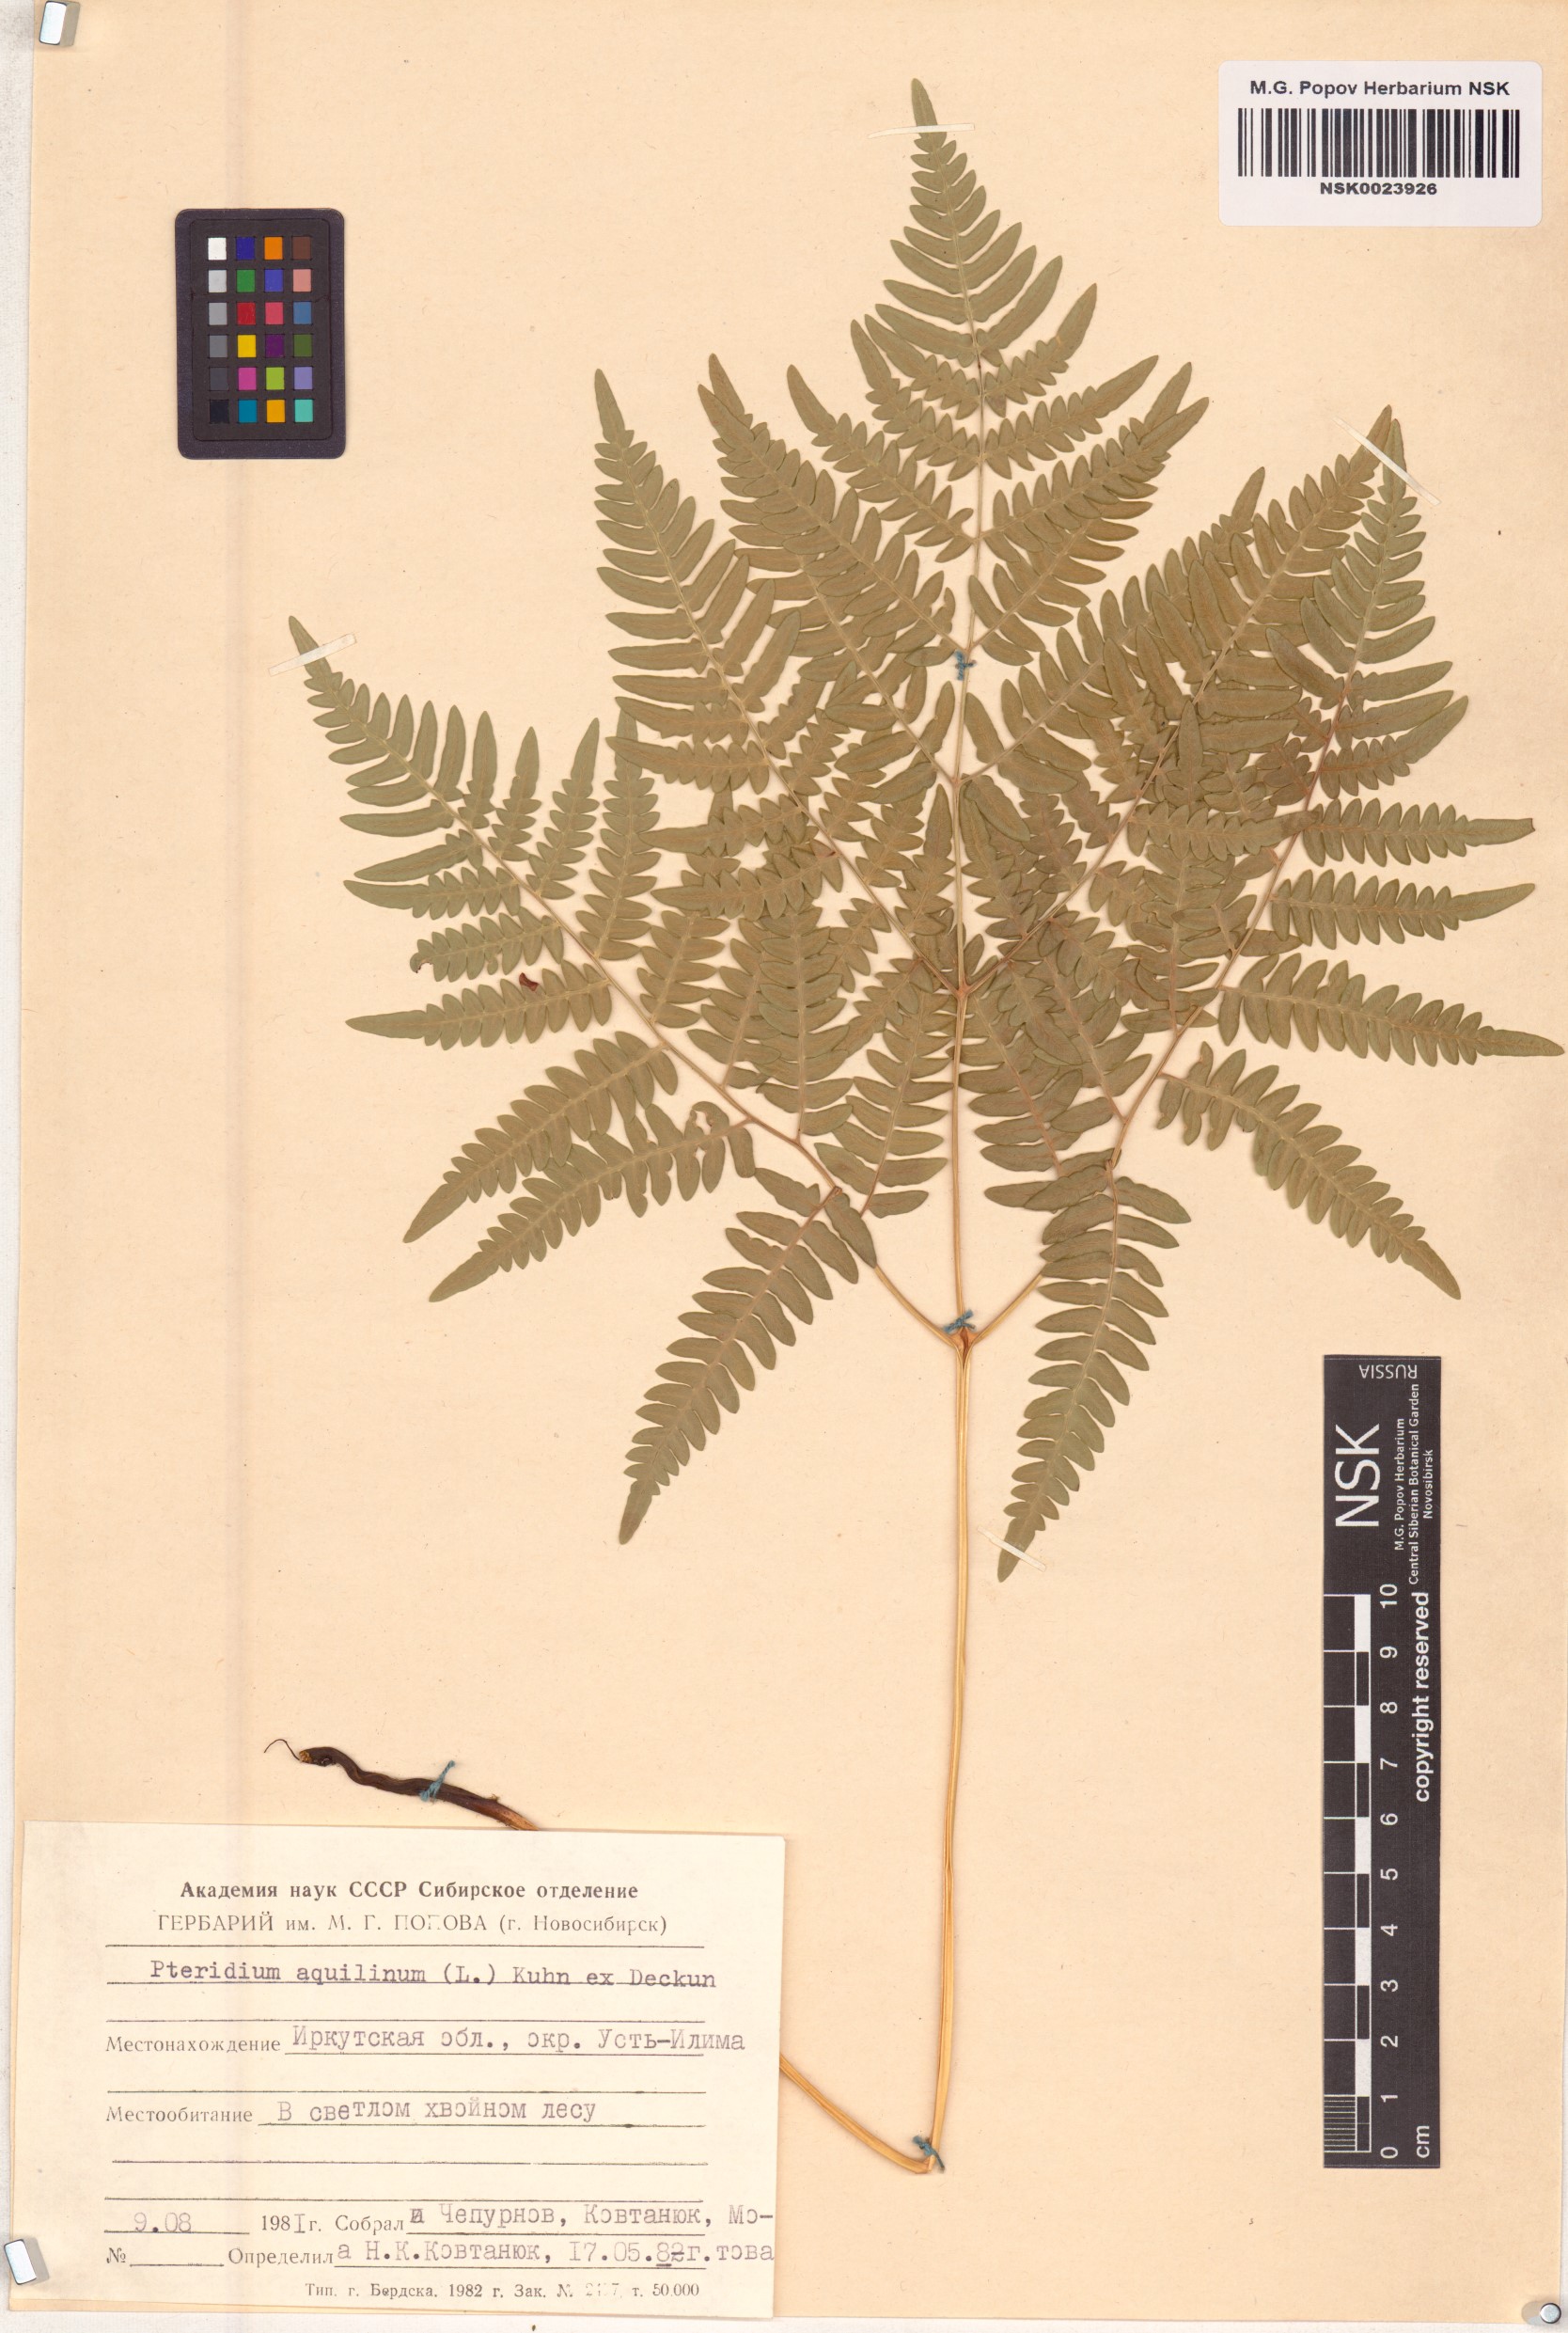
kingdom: Plantae
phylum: Tracheophyta
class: Polypodiopsida
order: Polypodiales
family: Dennstaedtiaceae
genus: Pteridium
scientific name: Pteridium aquilinum
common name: Bracken
